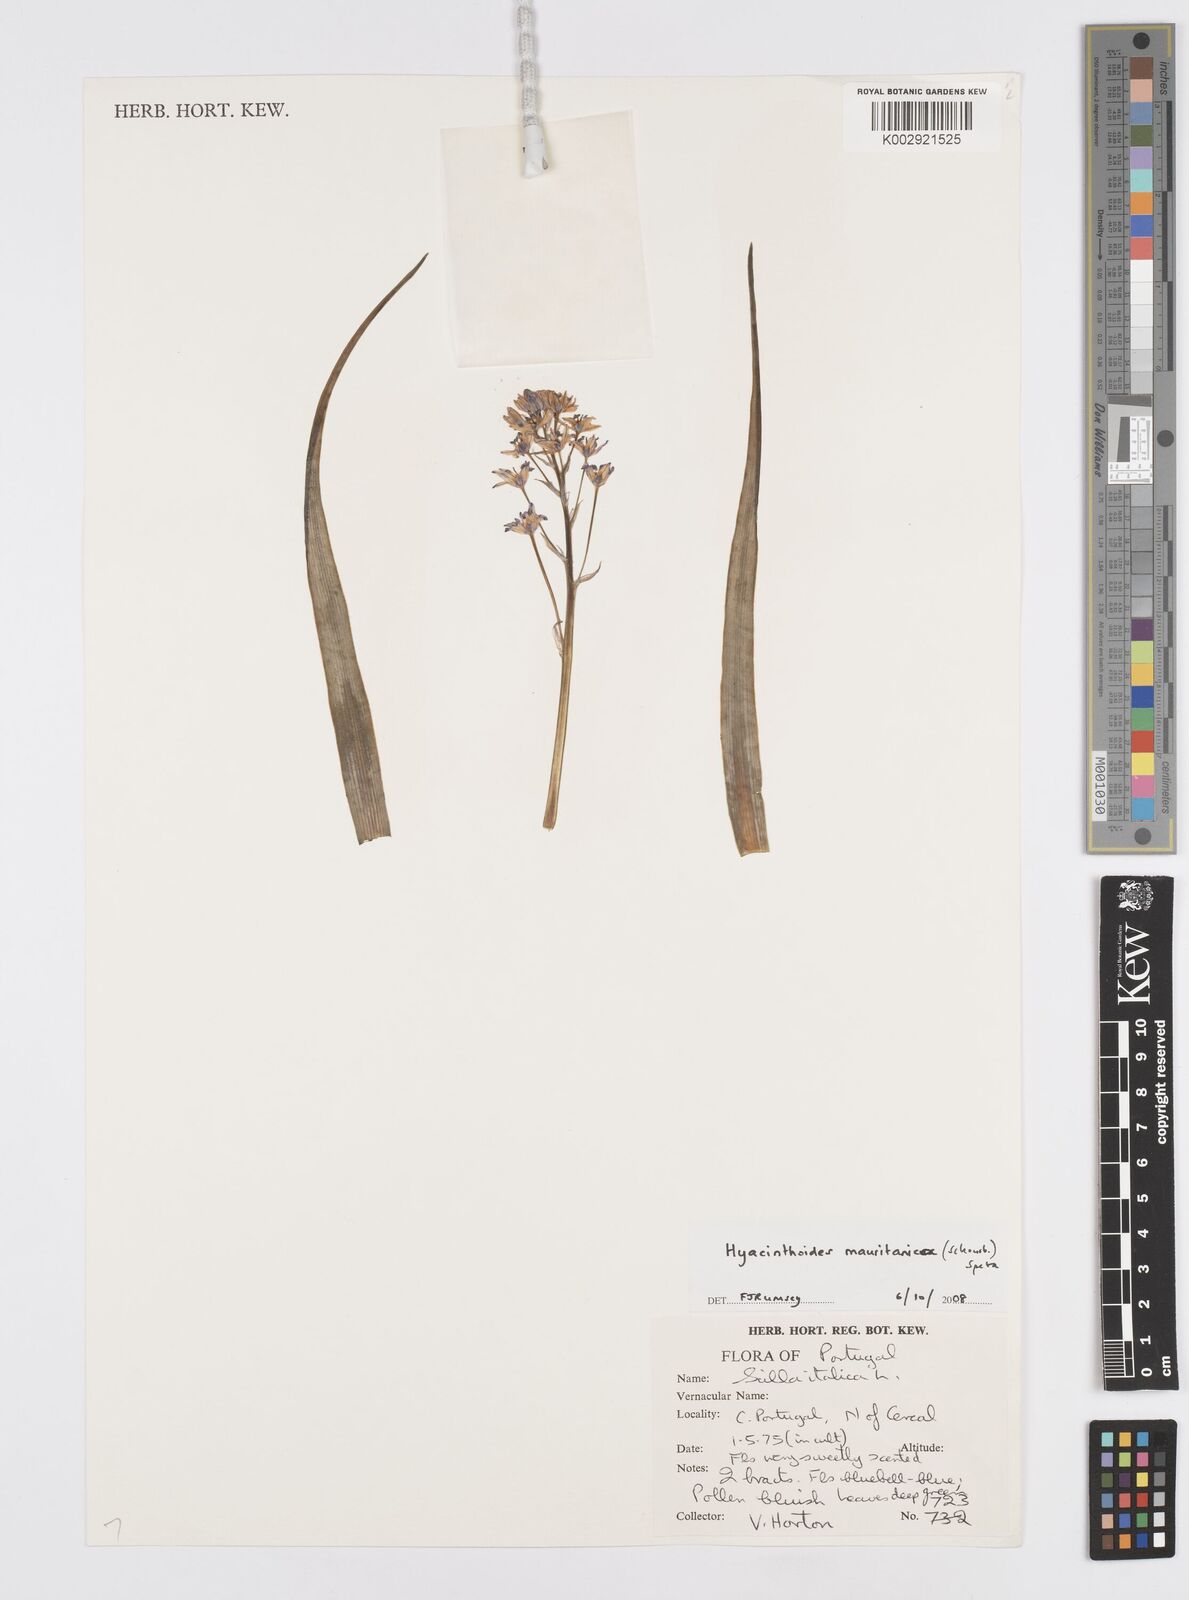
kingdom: Plantae
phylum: Tracheophyta
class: Liliopsida
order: Asparagales
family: Asparagaceae
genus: Hyacinthoides
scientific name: Hyacinthoides mauritanica
